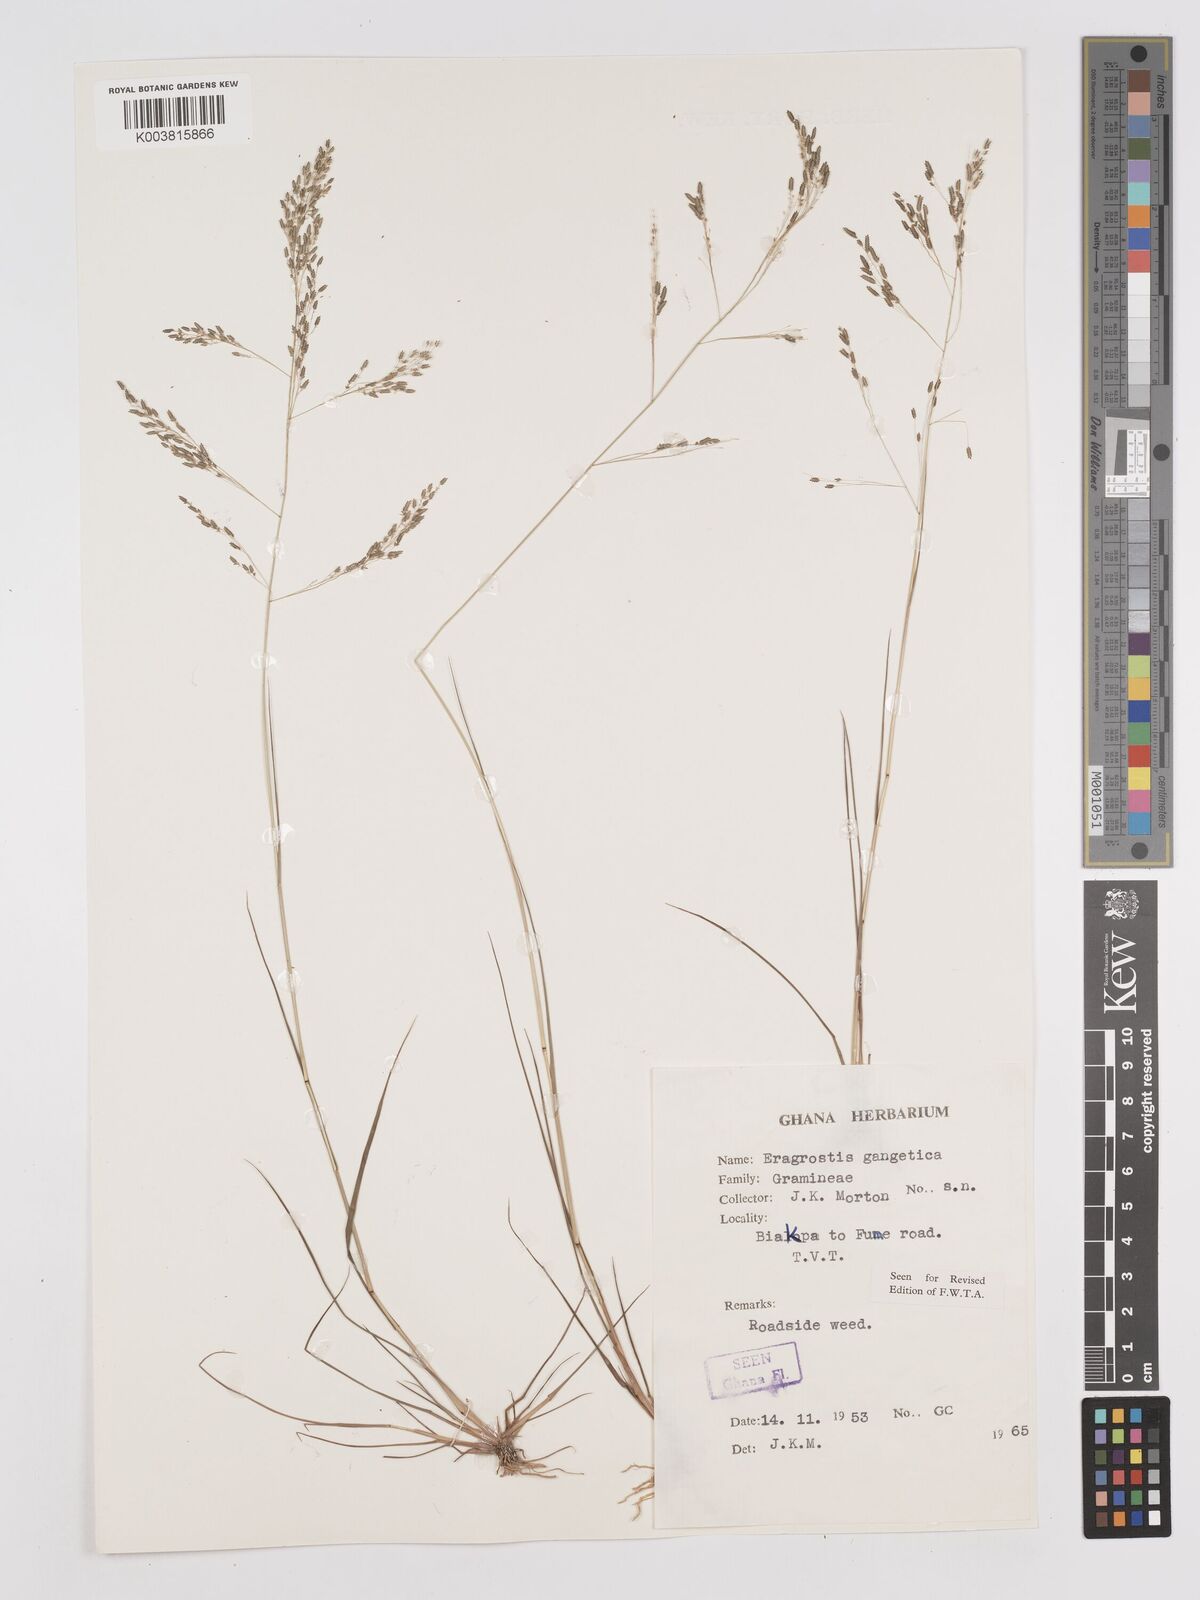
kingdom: Plantae
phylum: Tracheophyta
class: Liliopsida
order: Poales
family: Poaceae
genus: Eragrostis
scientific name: Eragrostis gangetica
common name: Slimflower lovegrass
